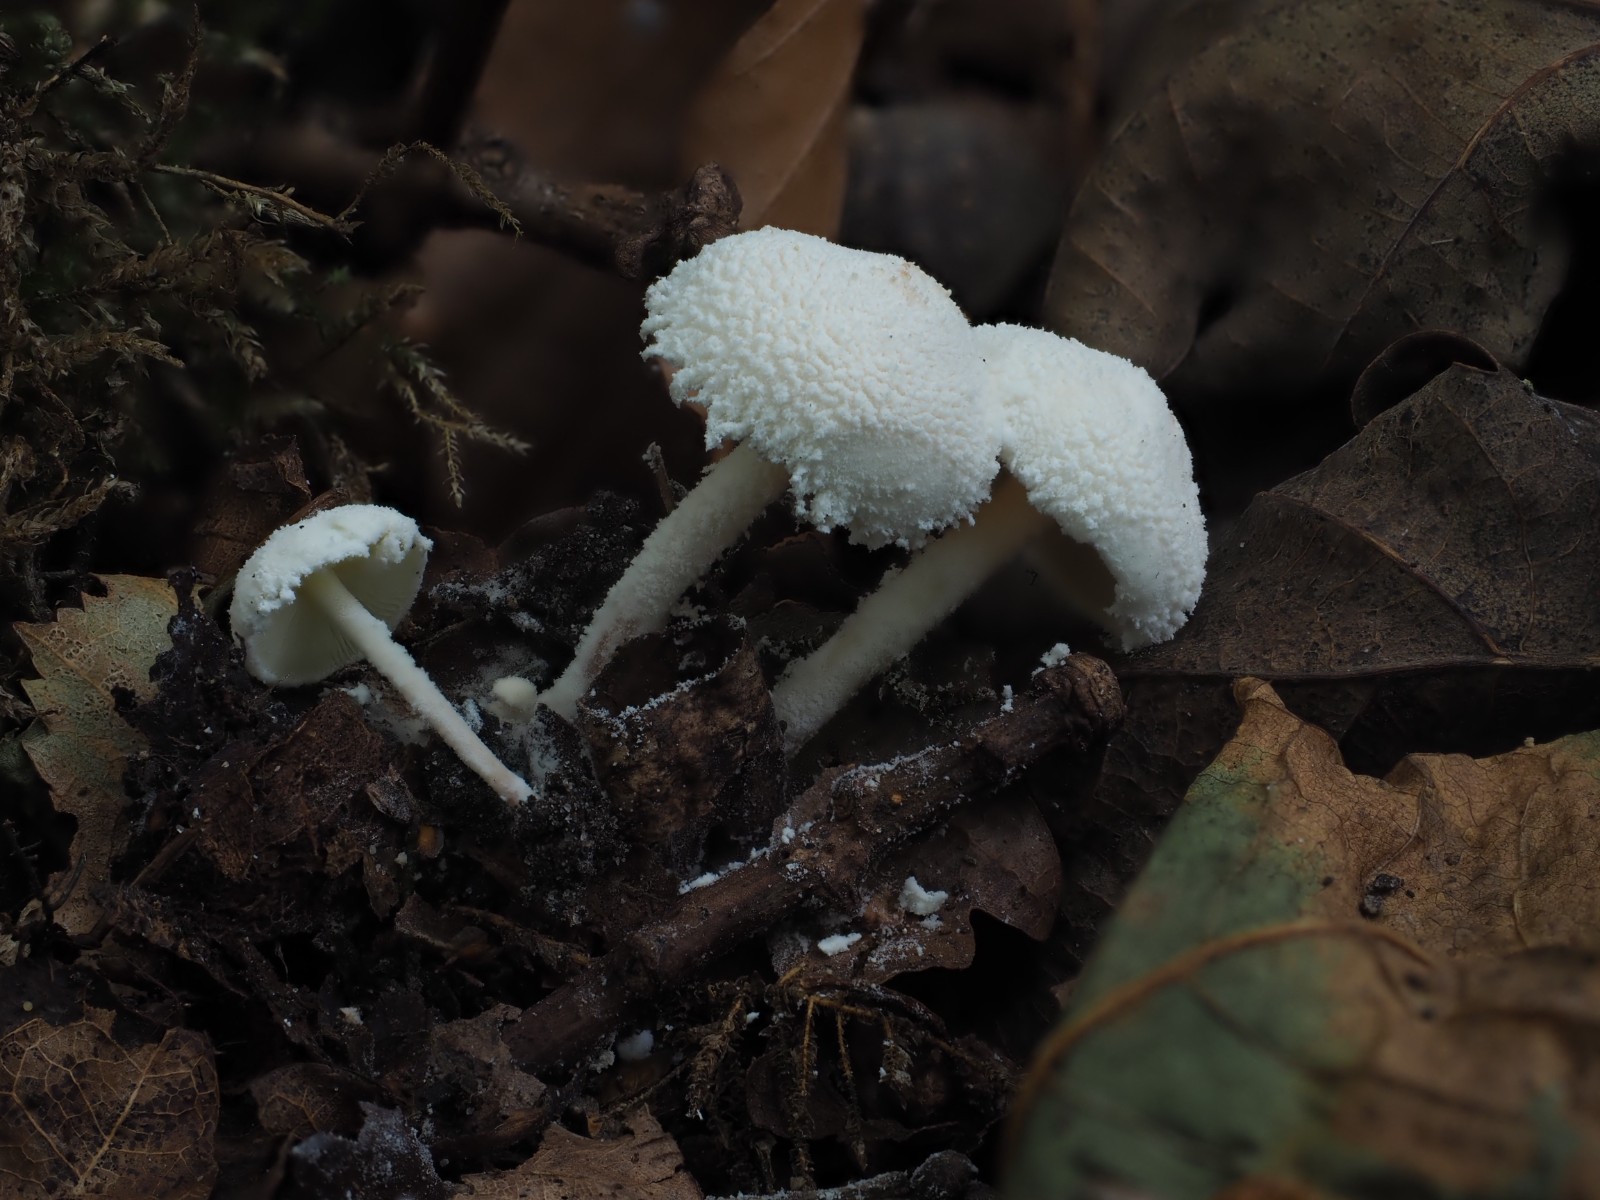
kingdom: Fungi
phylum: Basidiomycota
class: Agaricomycetes
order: Agaricales
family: Agaricaceae
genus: Cystolepiota
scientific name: Cystolepiota seminuda
